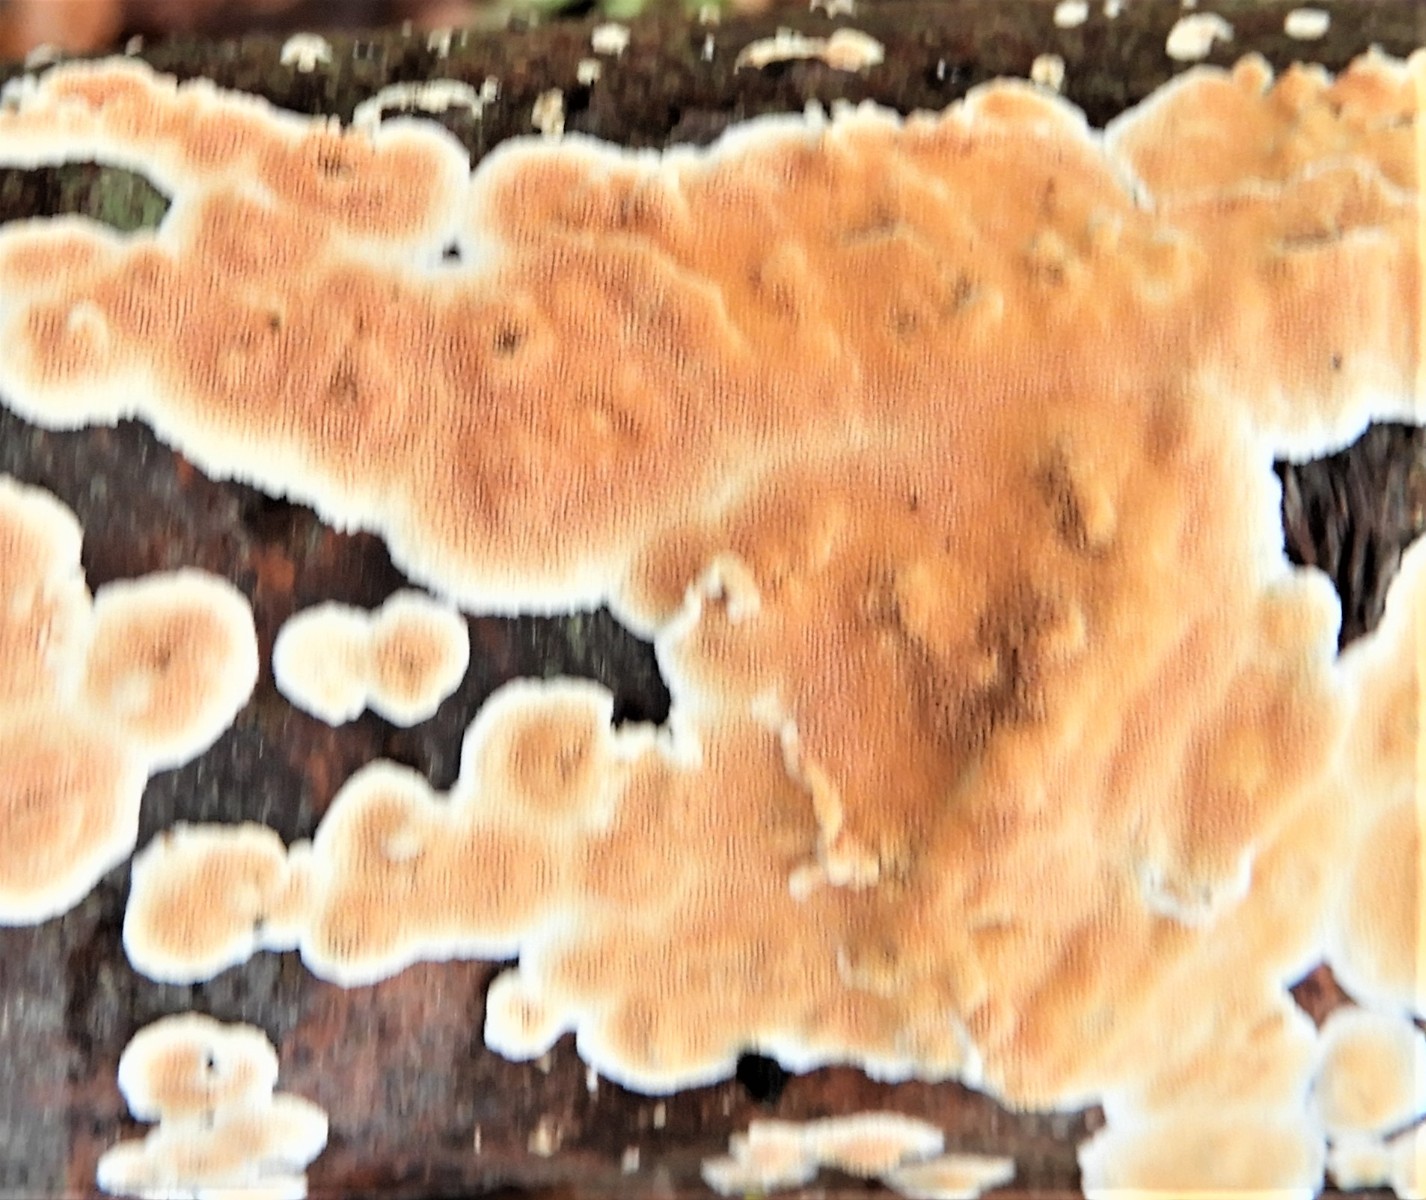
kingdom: Fungi
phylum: Basidiomycota
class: Agaricomycetes
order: Polyporales
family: Steccherinaceae
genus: Steccherinum
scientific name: Steccherinum ochraceum
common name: almindelig skønpig
